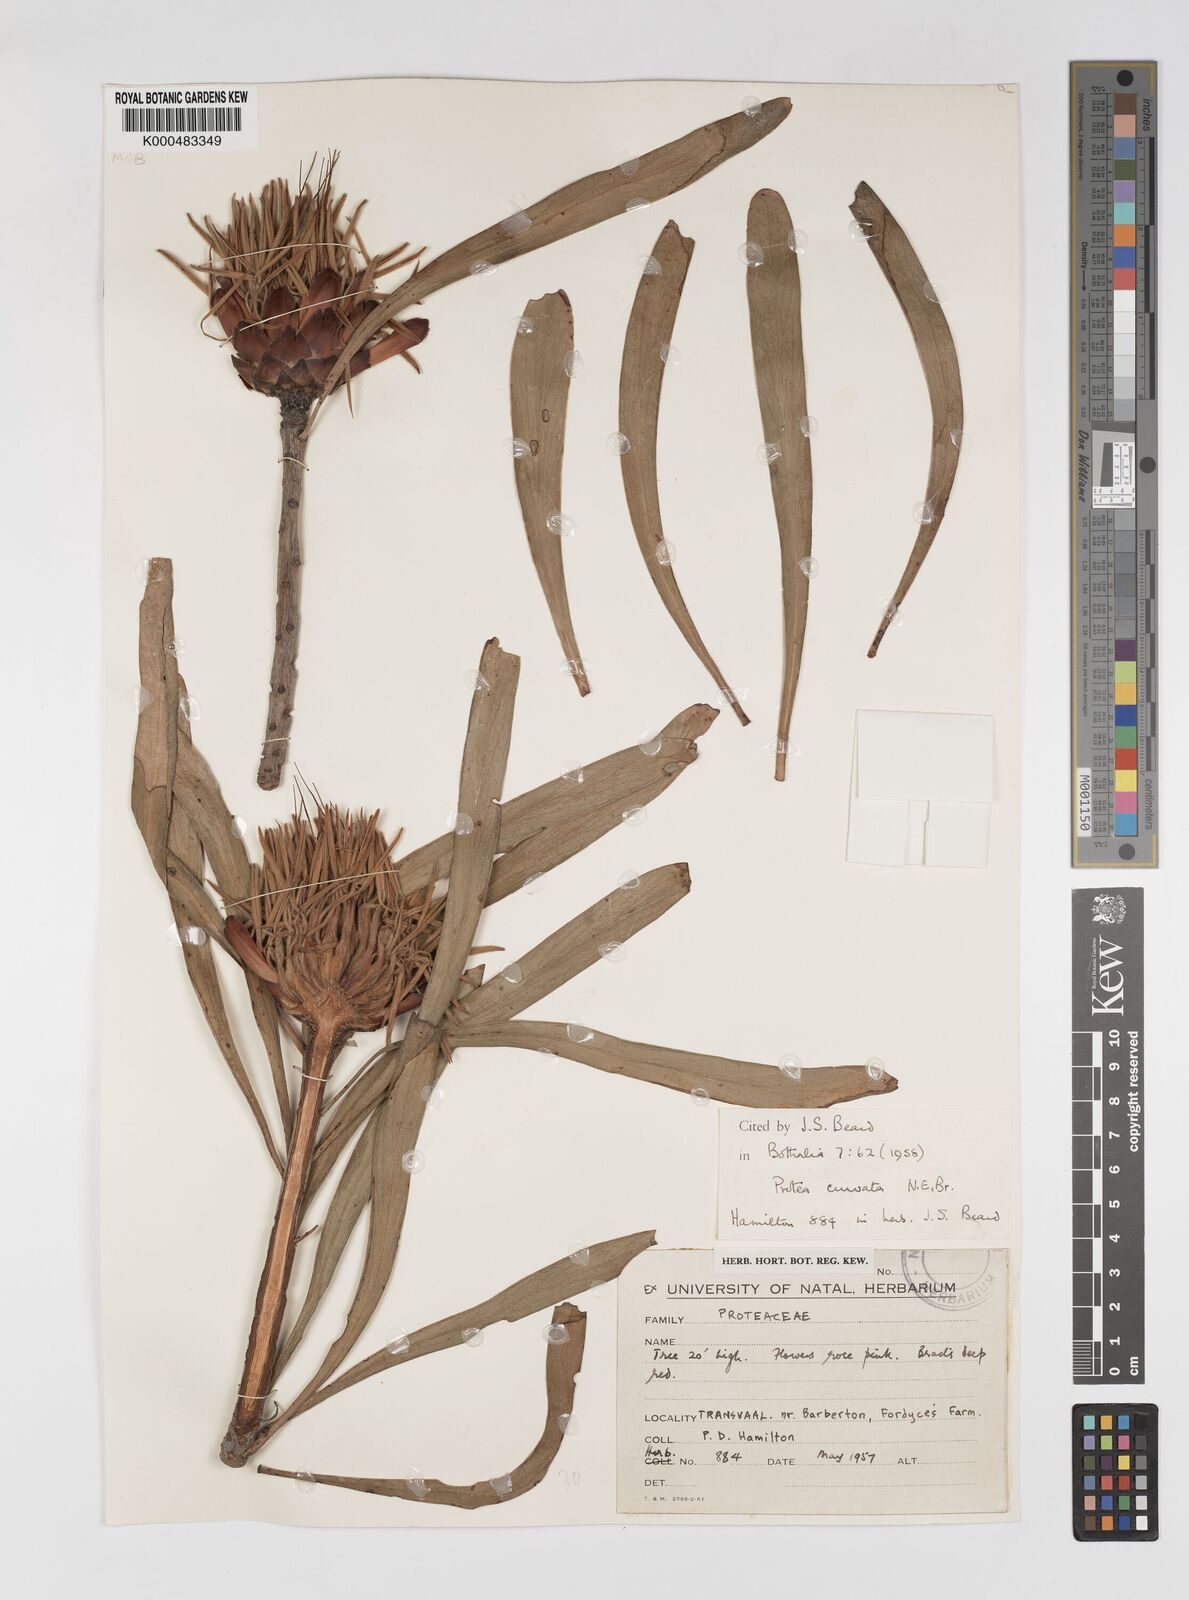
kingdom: Plantae
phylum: Tracheophyta
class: Magnoliopsida
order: Proteales
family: Proteaceae
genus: Protea
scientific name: Protea curvata
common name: Barberton lowveld sugarbush
